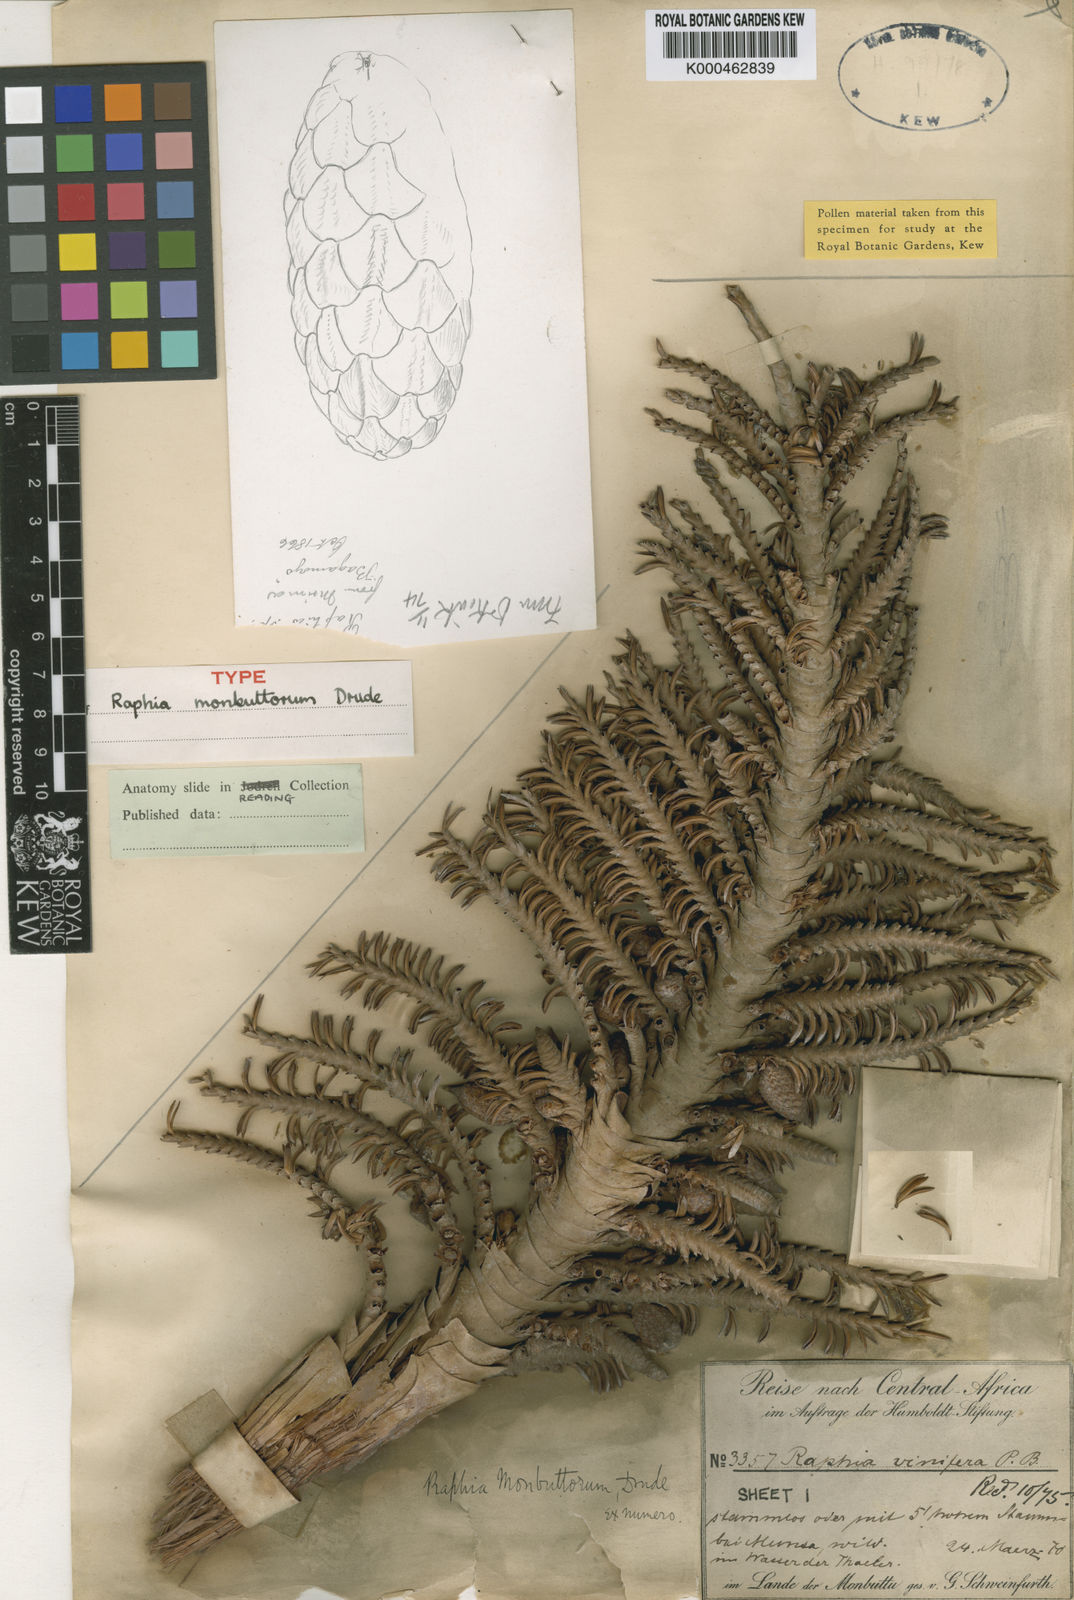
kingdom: Plantae
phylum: Tracheophyta
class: Liliopsida
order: Arecales
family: Arecaceae
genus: Raphia
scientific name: Raphia monbuttorum
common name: Raphia palm
